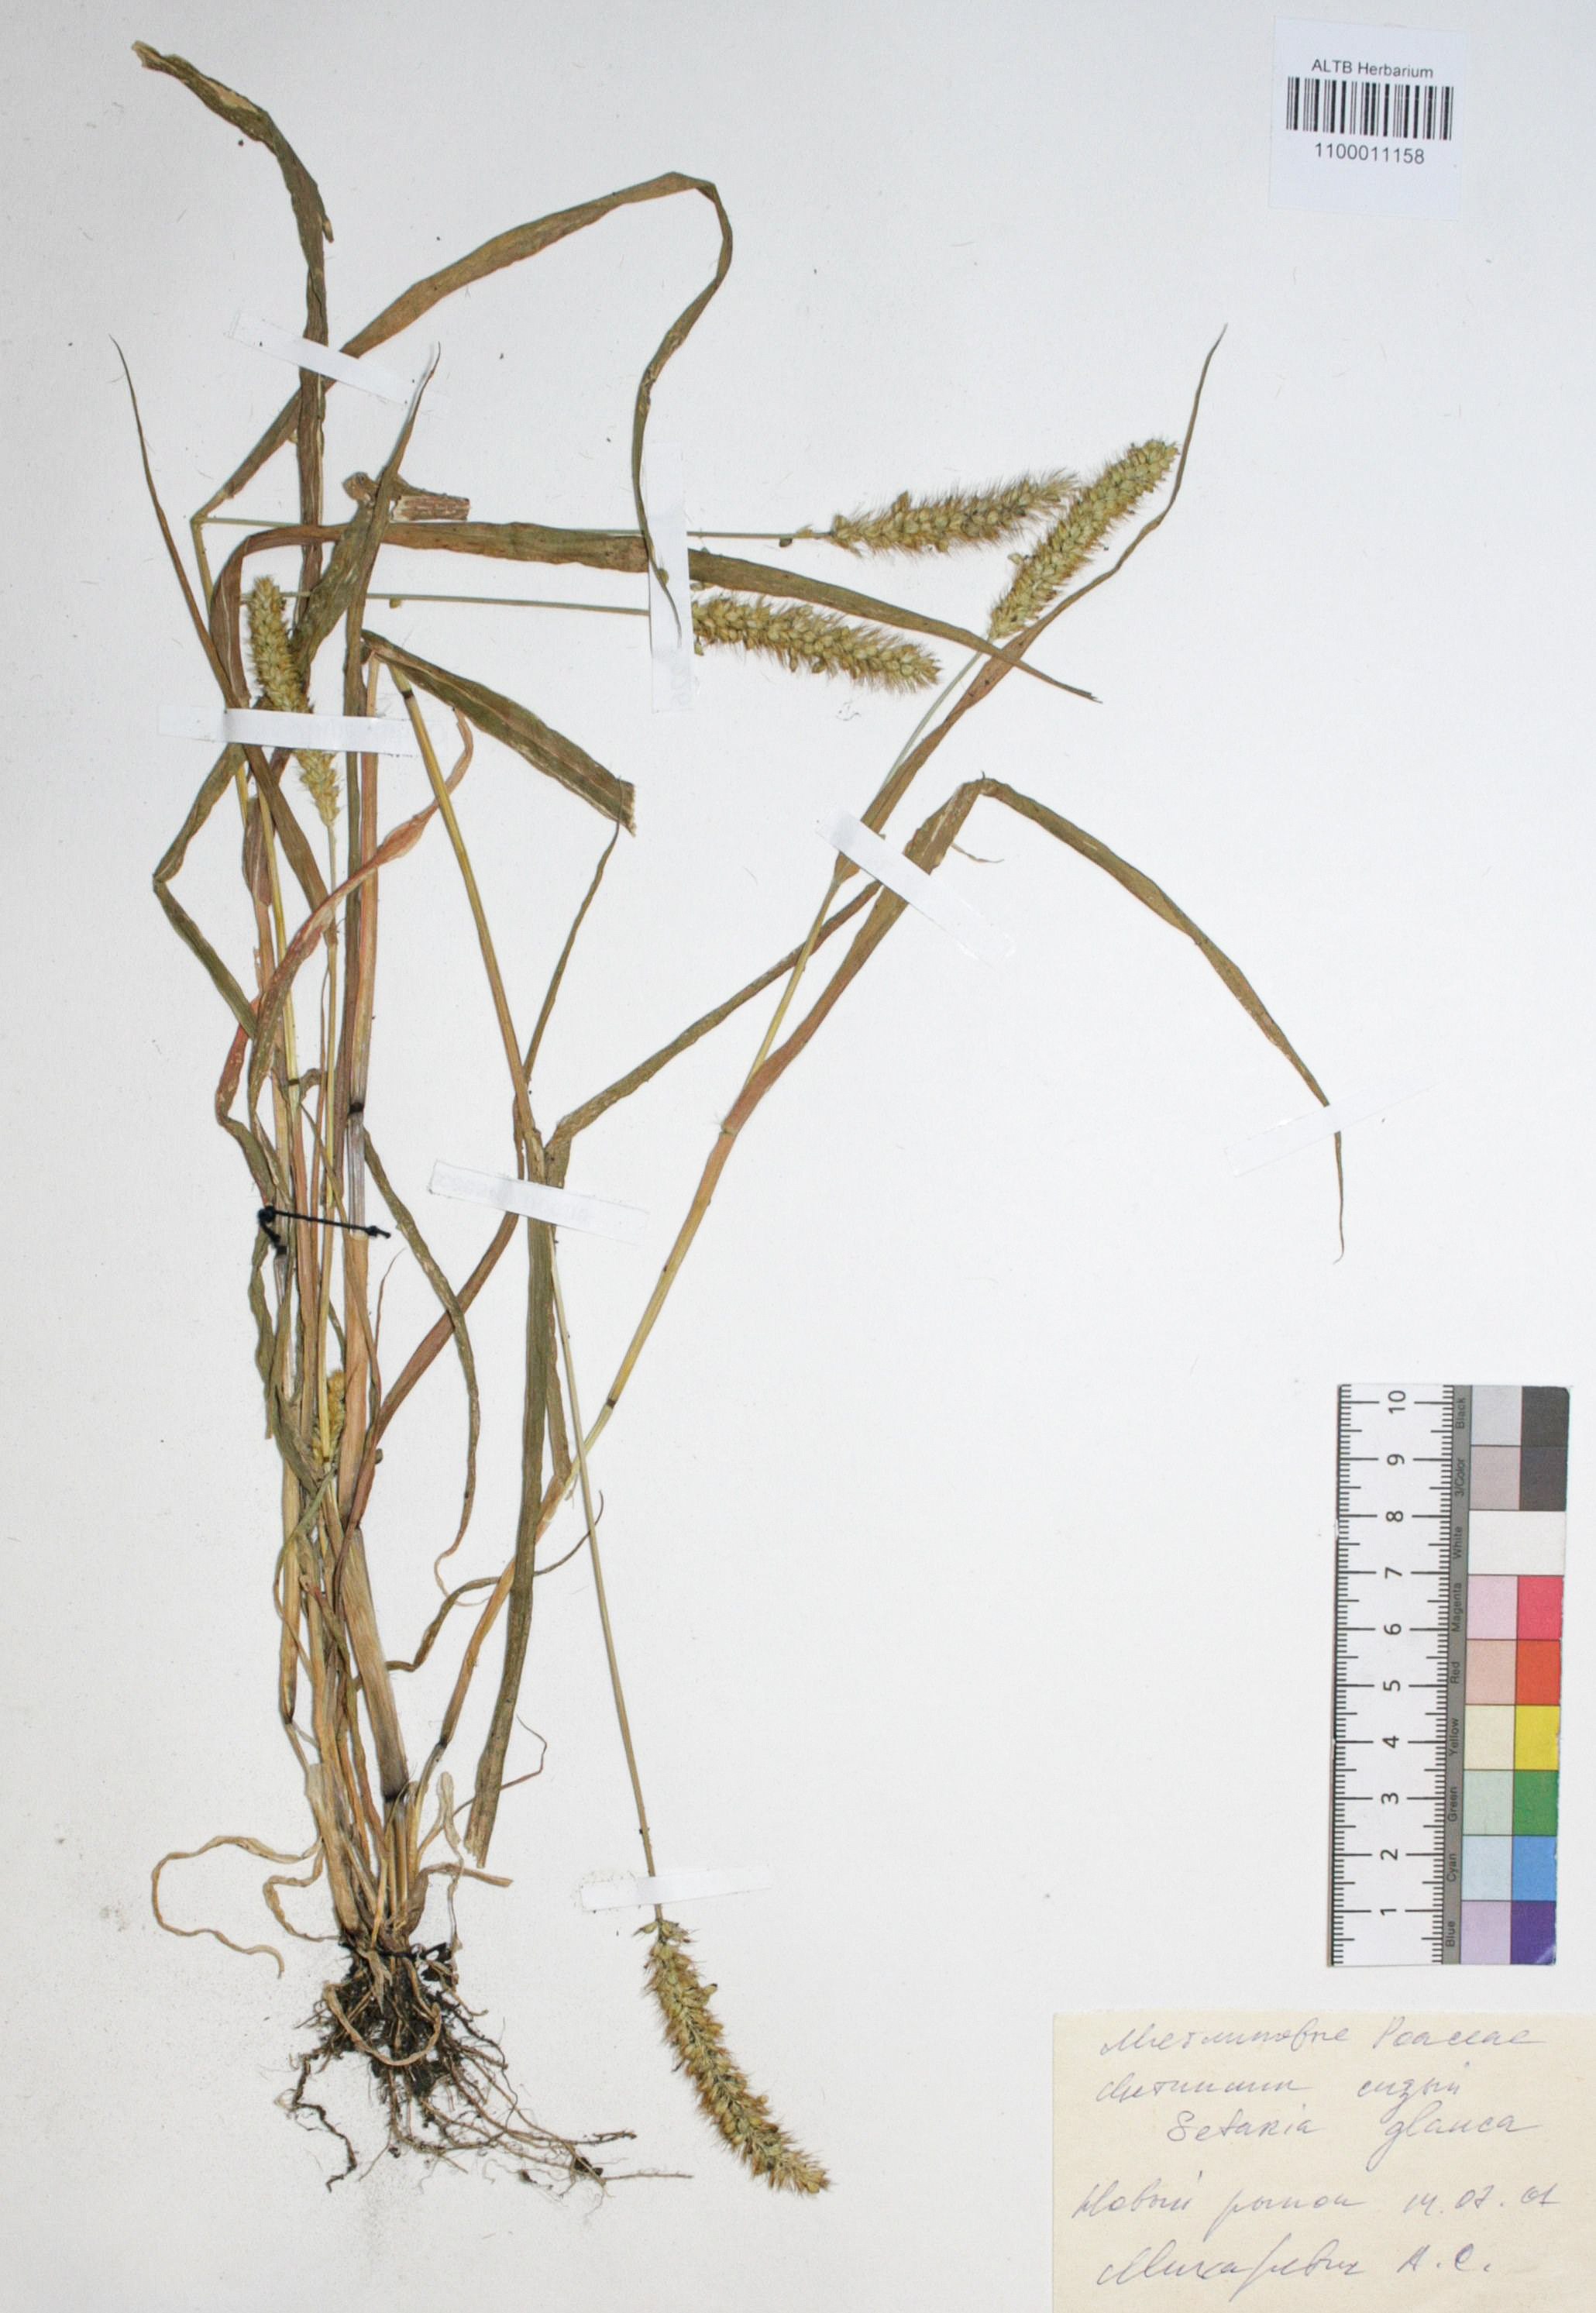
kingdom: Plantae
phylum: Tracheophyta
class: Liliopsida
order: Poales
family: Poaceae
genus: Setaria
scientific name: Setaria pumila
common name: Yellow bristle-grass
